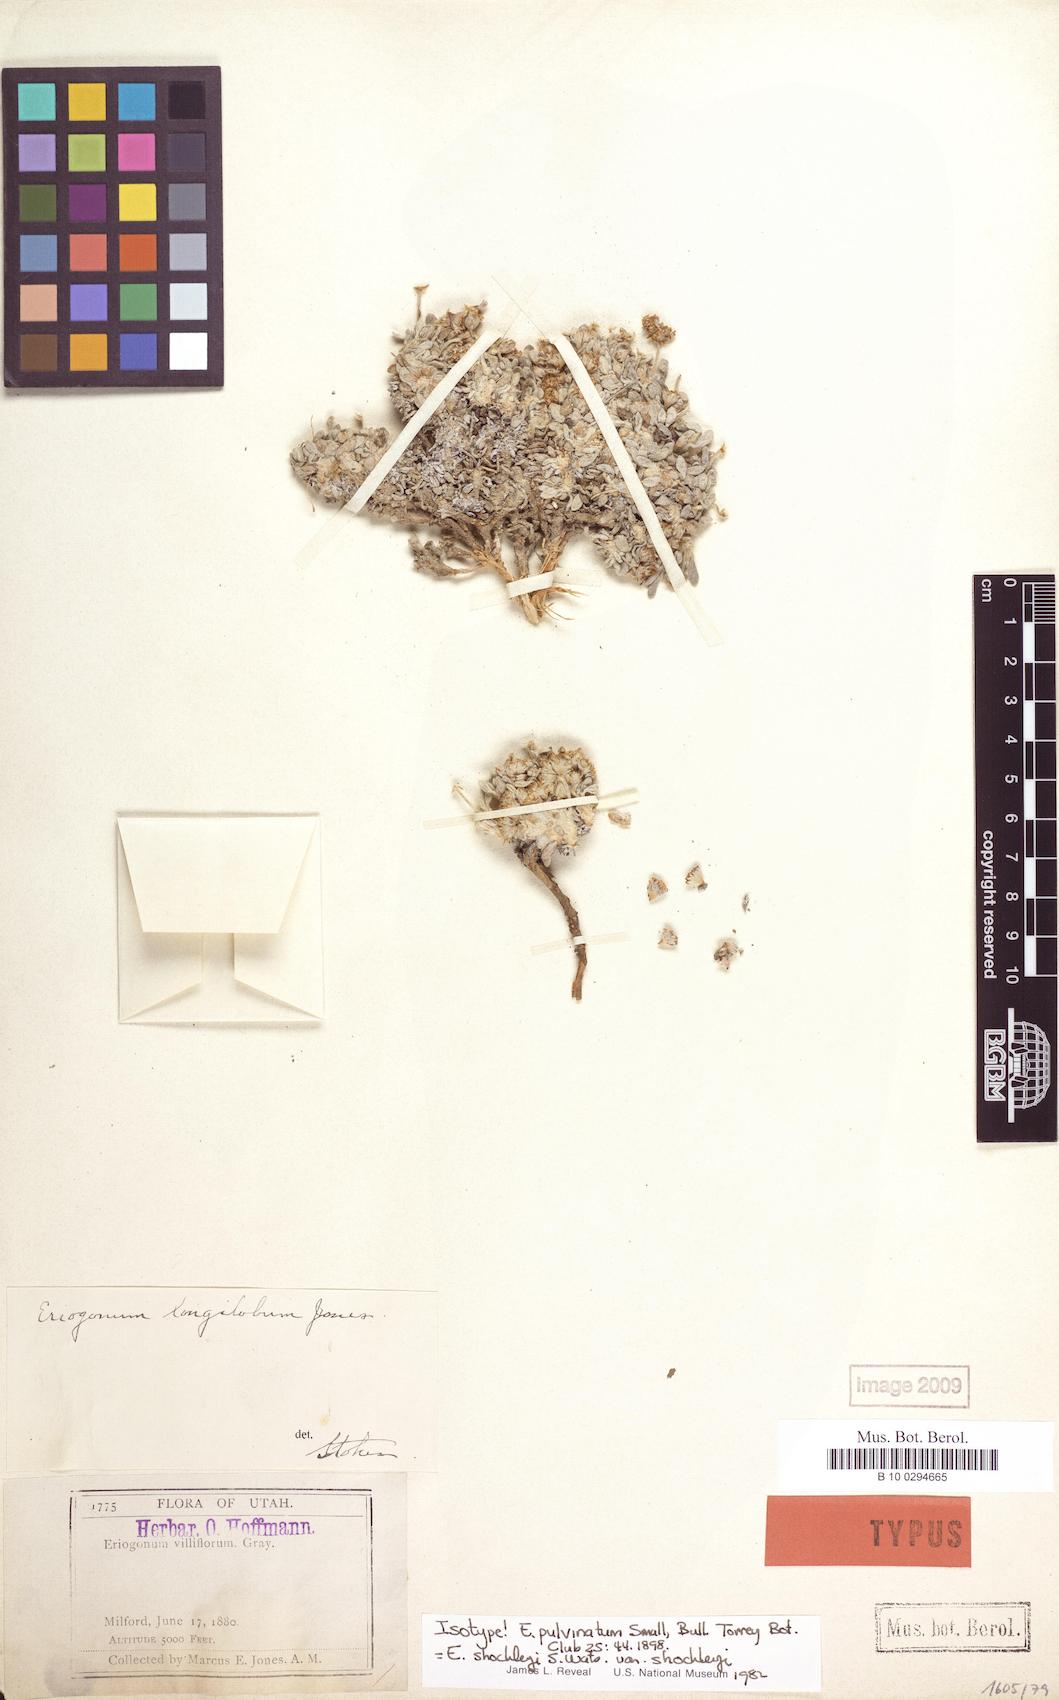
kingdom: Plantae
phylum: Tracheophyta
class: Magnoliopsida
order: Caryophyllales
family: Polygonaceae
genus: Eriogonum
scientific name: Eriogonum shockleyi
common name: Shockley's wild buckwheat
